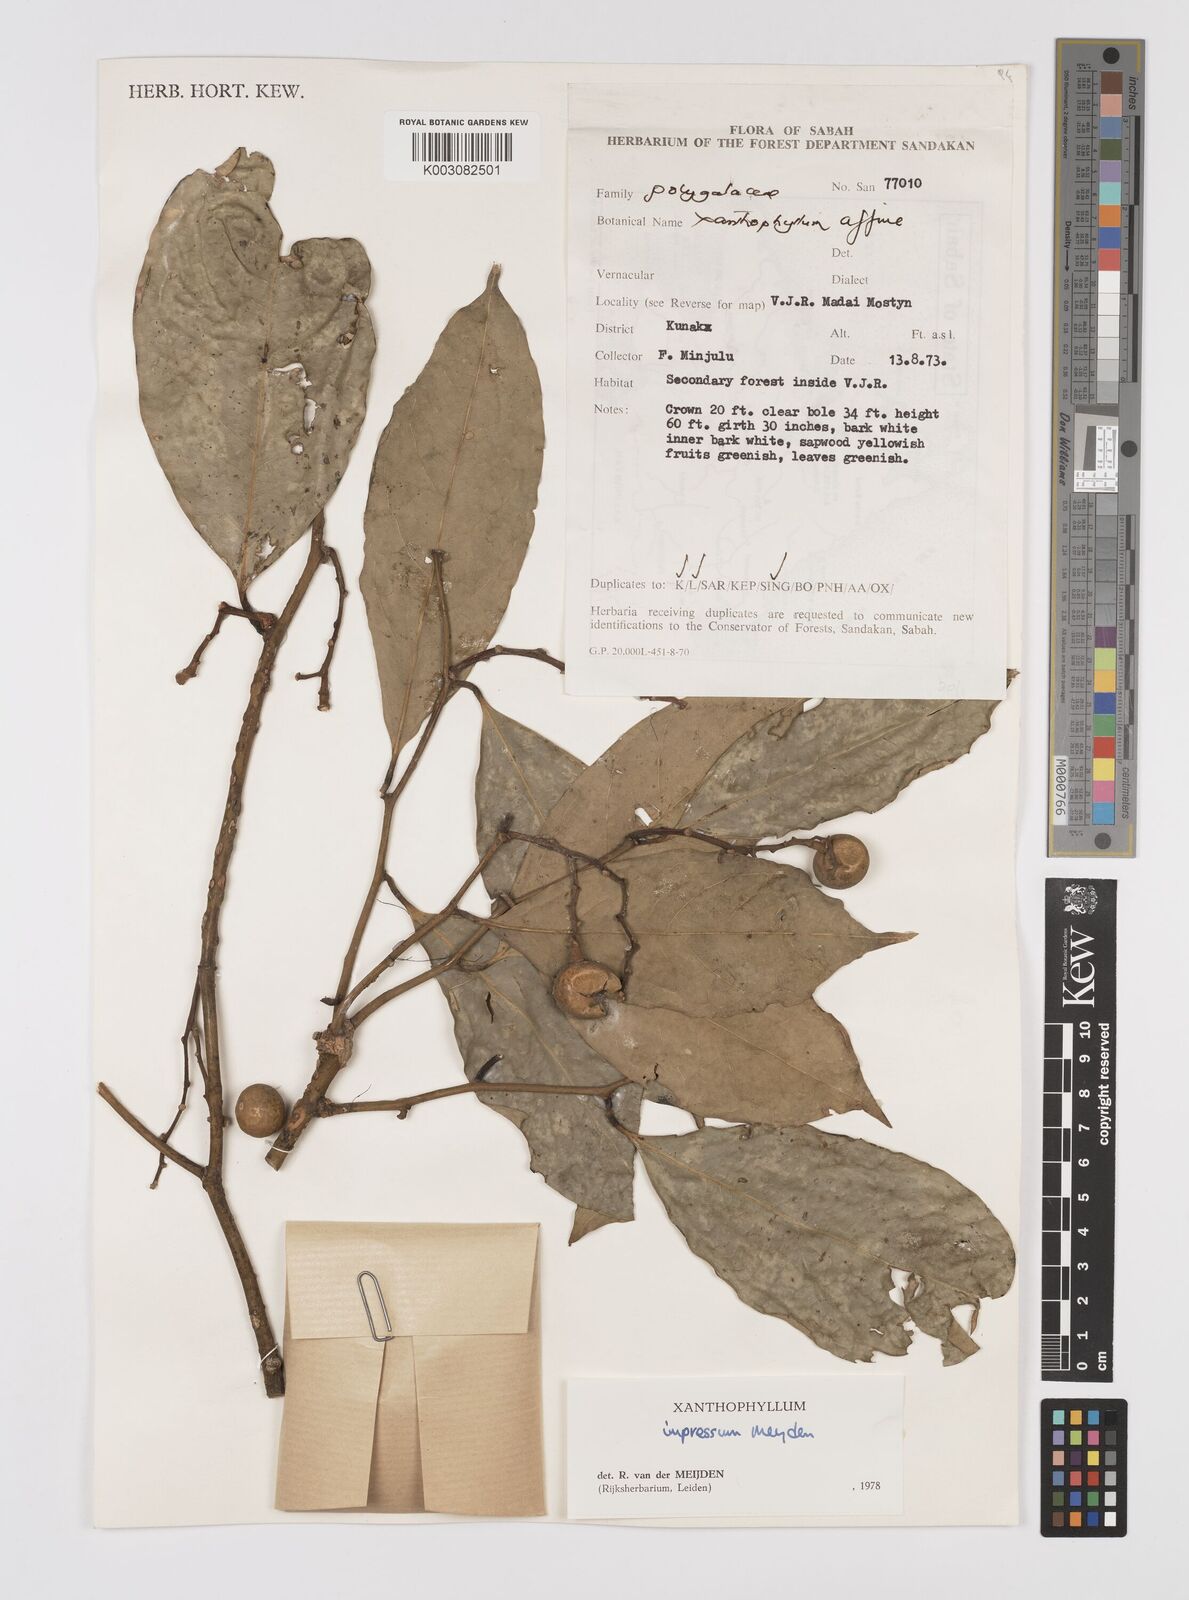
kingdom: Plantae
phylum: Tracheophyta
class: Magnoliopsida
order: Fabales
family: Polygalaceae
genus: Xanthophyllum
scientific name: Xanthophyllum impressum
